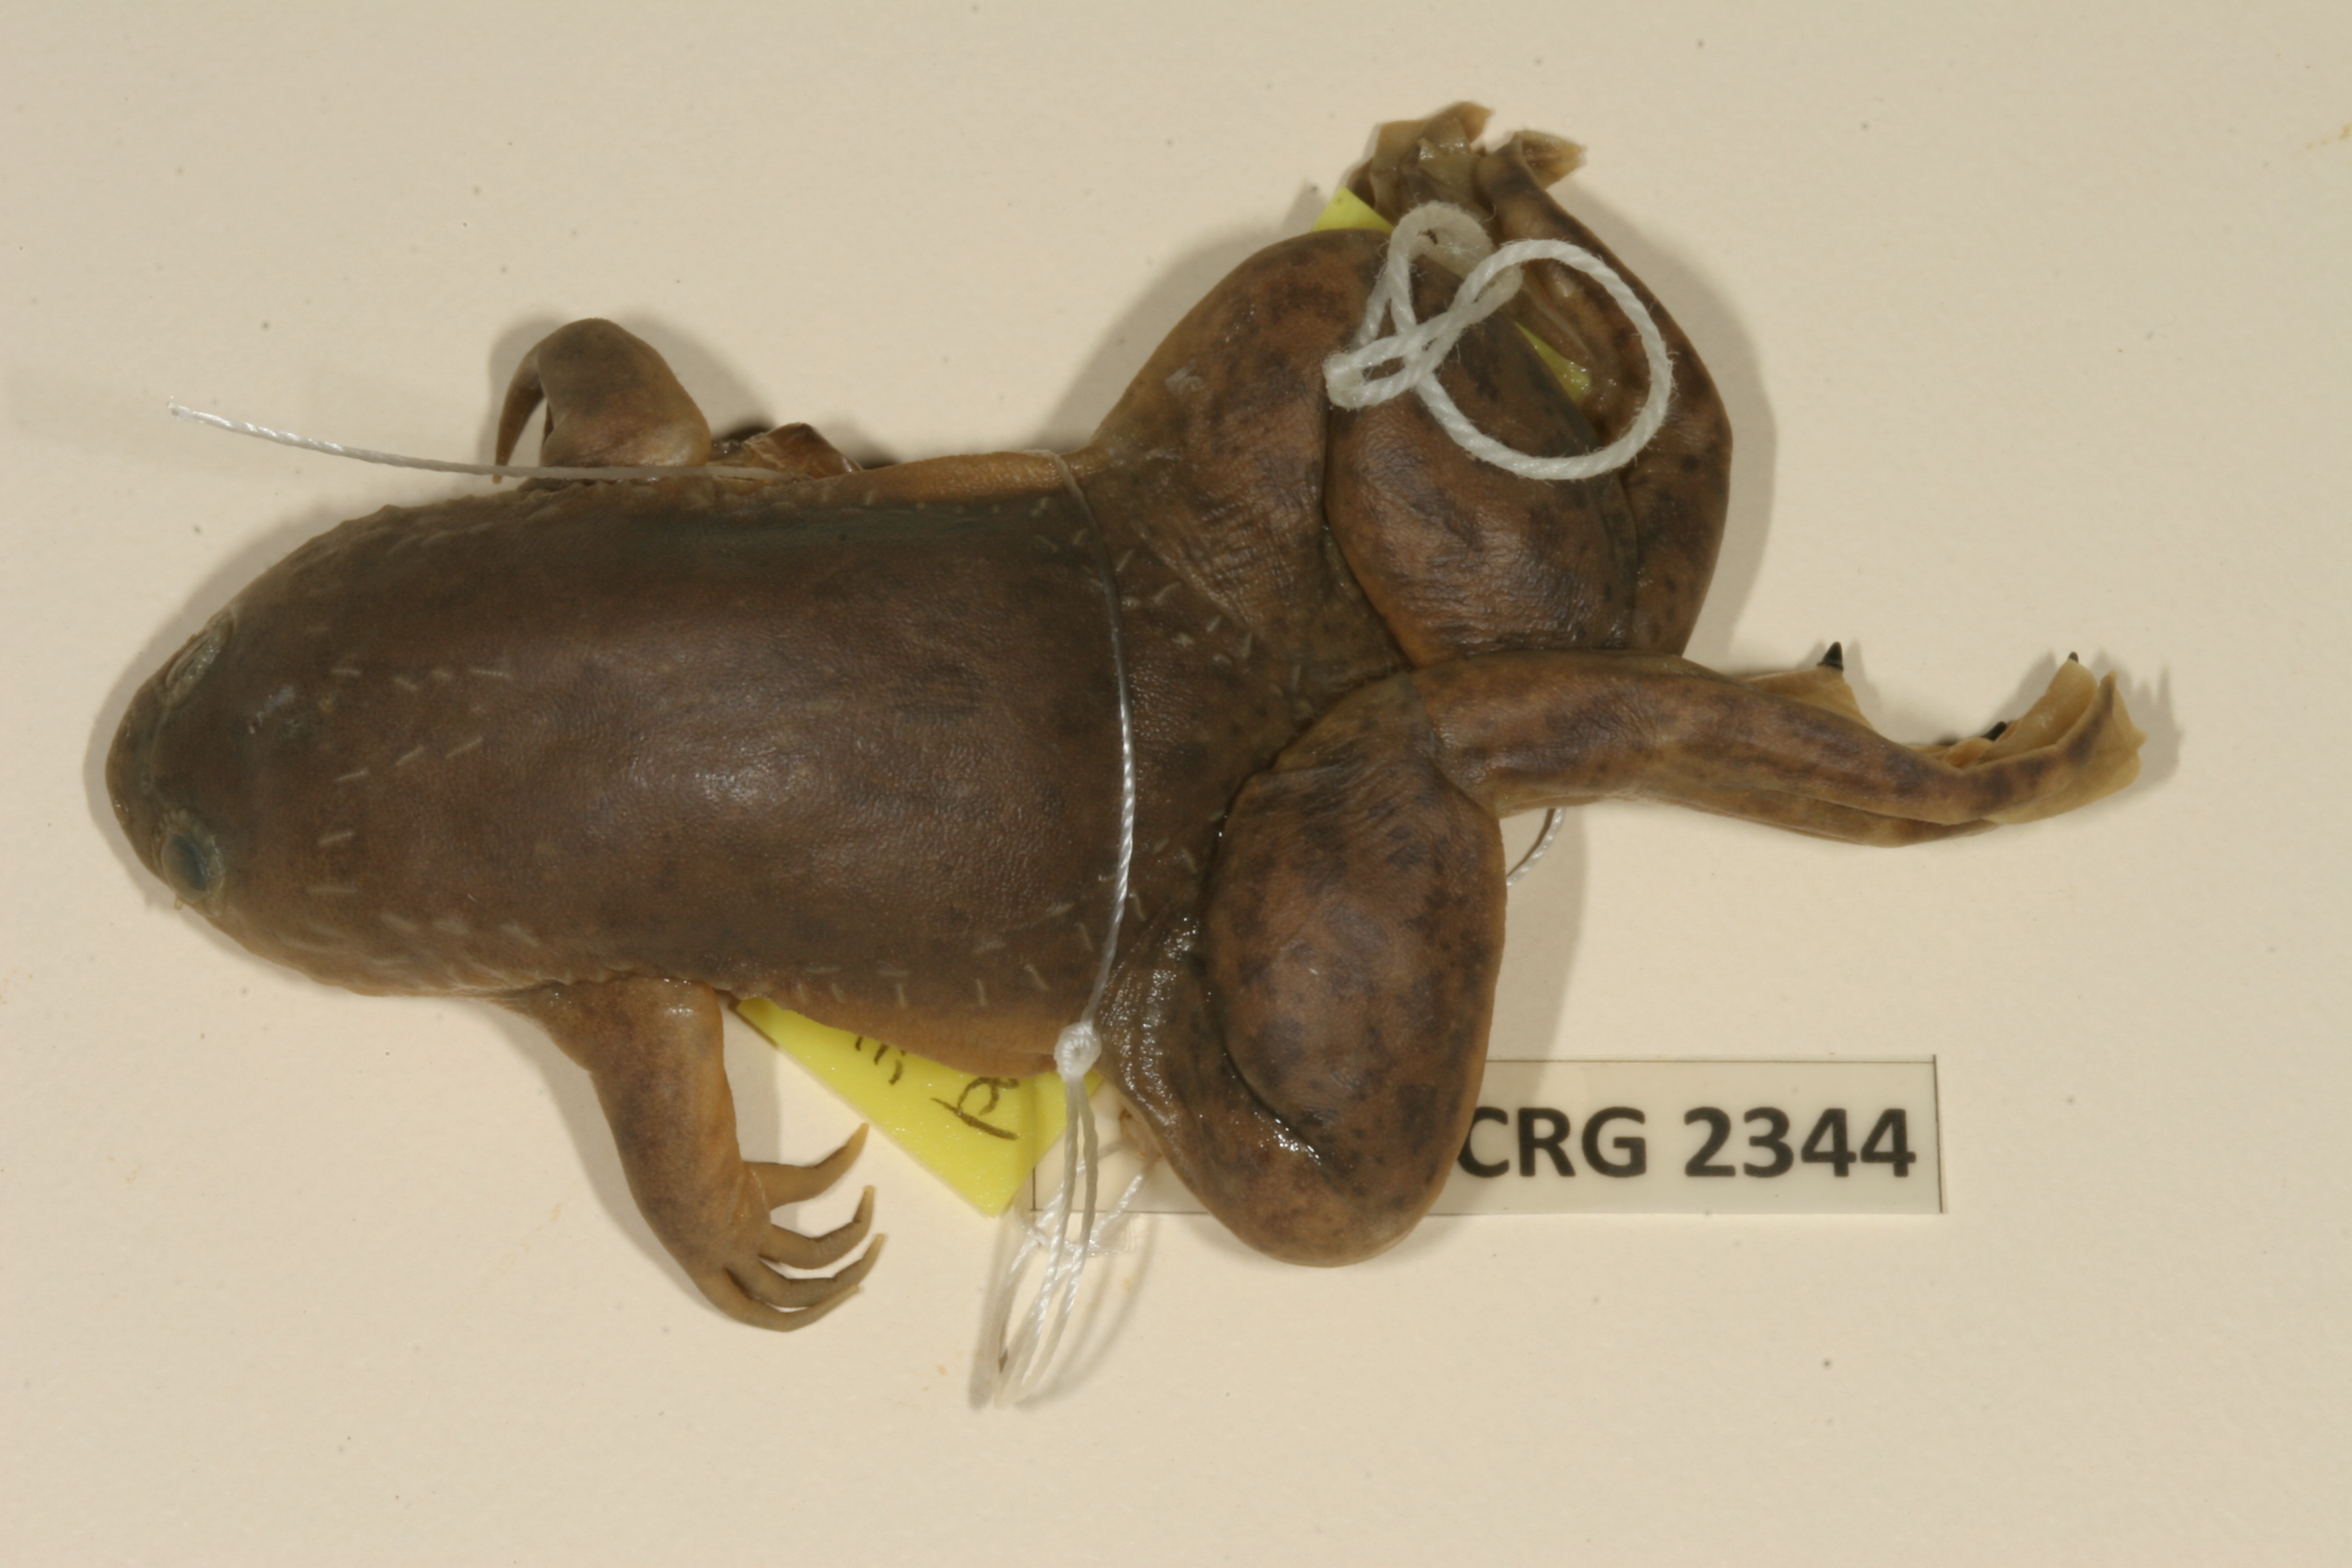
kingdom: Animalia
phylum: Chordata
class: Amphibia
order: Anura
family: Pipidae
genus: Xenopus
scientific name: Xenopus laevis
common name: African clawed frog
